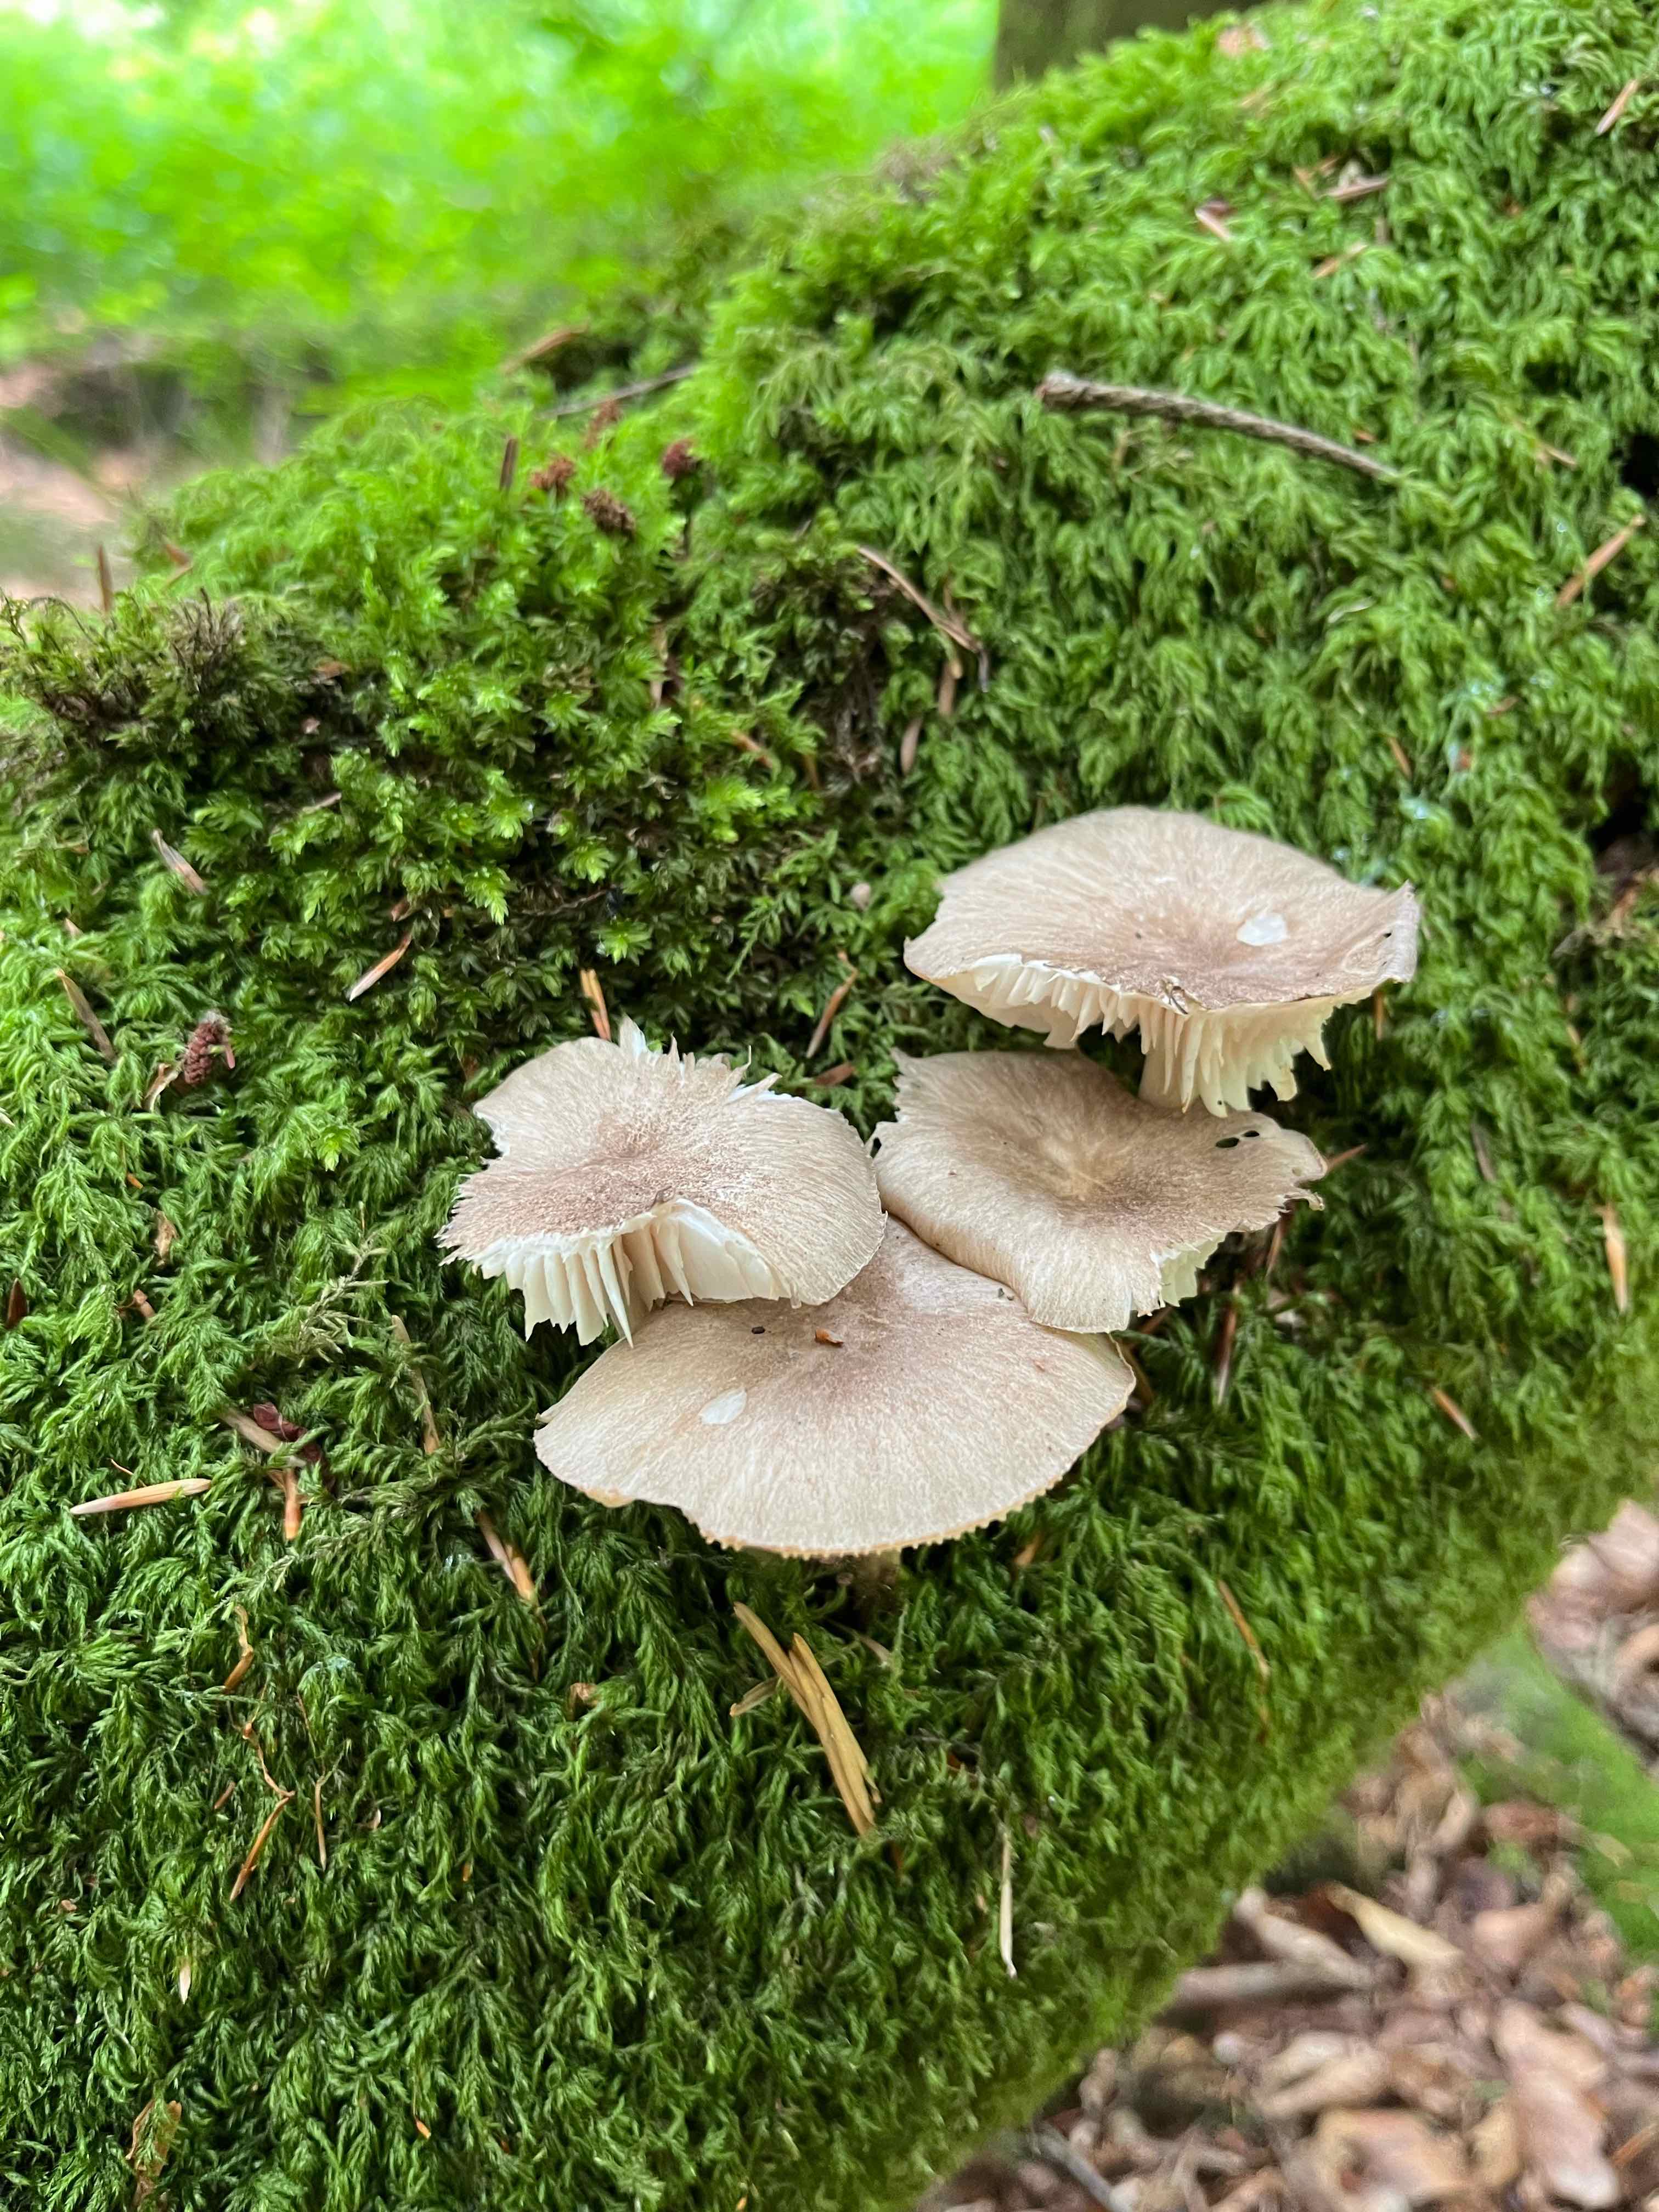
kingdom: Fungi
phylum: Basidiomycota
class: Agaricomycetes
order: Agaricales
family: Tricholomataceae
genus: Megacollybia
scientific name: Megacollybia platyphylla
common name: bredbladet væbnerhat
